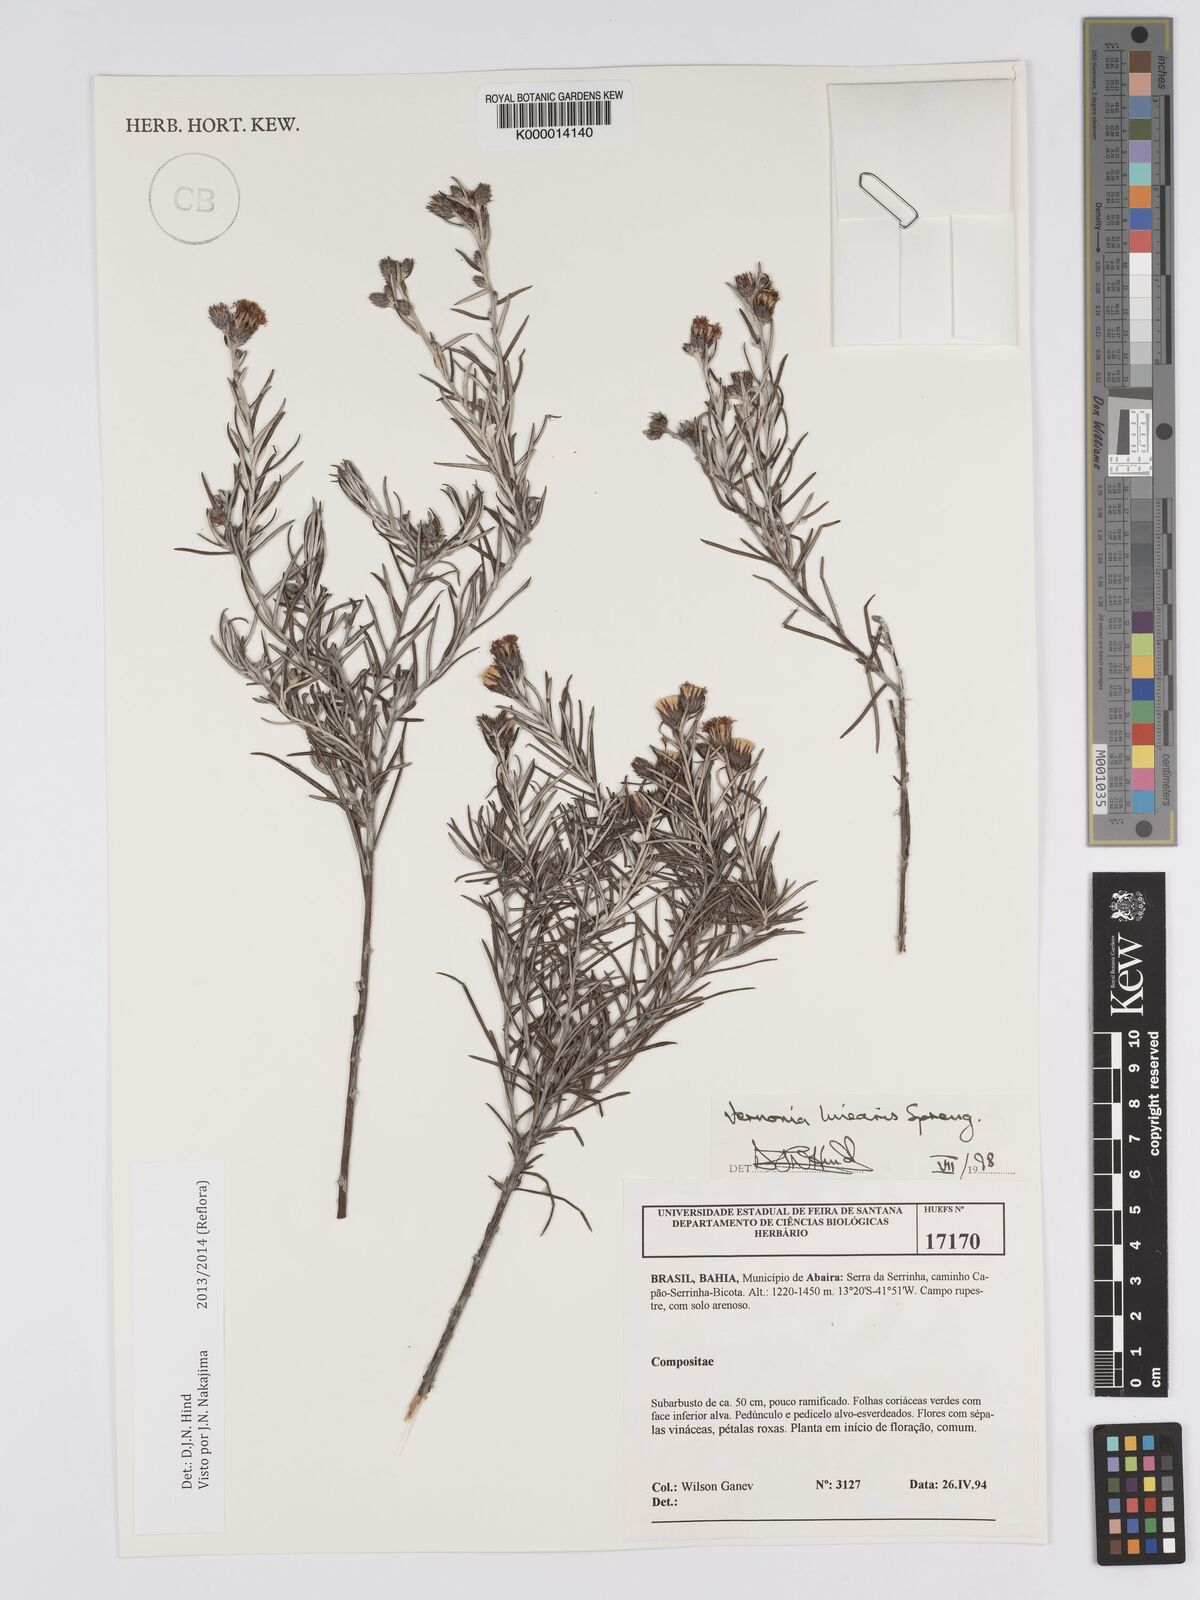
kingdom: Plantae
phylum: Tracheophyta
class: Magnoliopsida
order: Asterales
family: Asteraceae
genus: Lessingianthus
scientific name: Lessingianthus linearis
